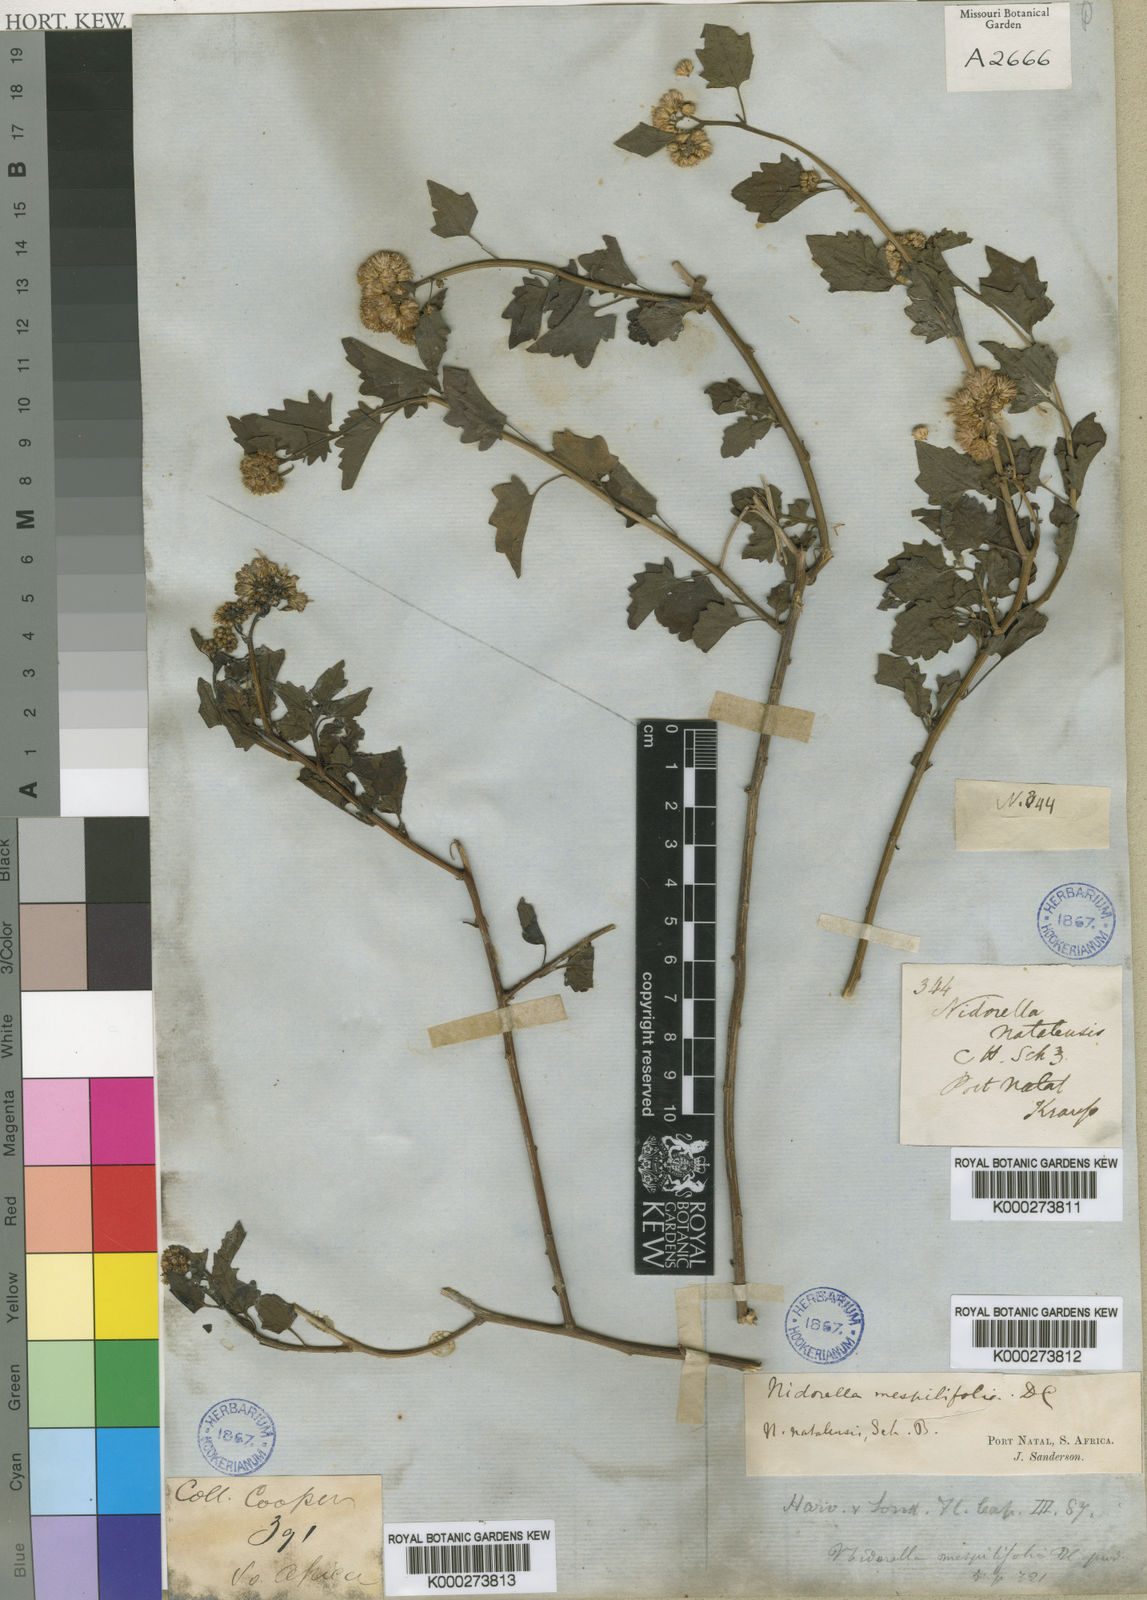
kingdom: Plantae
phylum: Tracheophyta
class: Magnoliopsida
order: Asterales
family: Asteraceae
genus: Microglossa
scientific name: Microglossa mespilifolia
